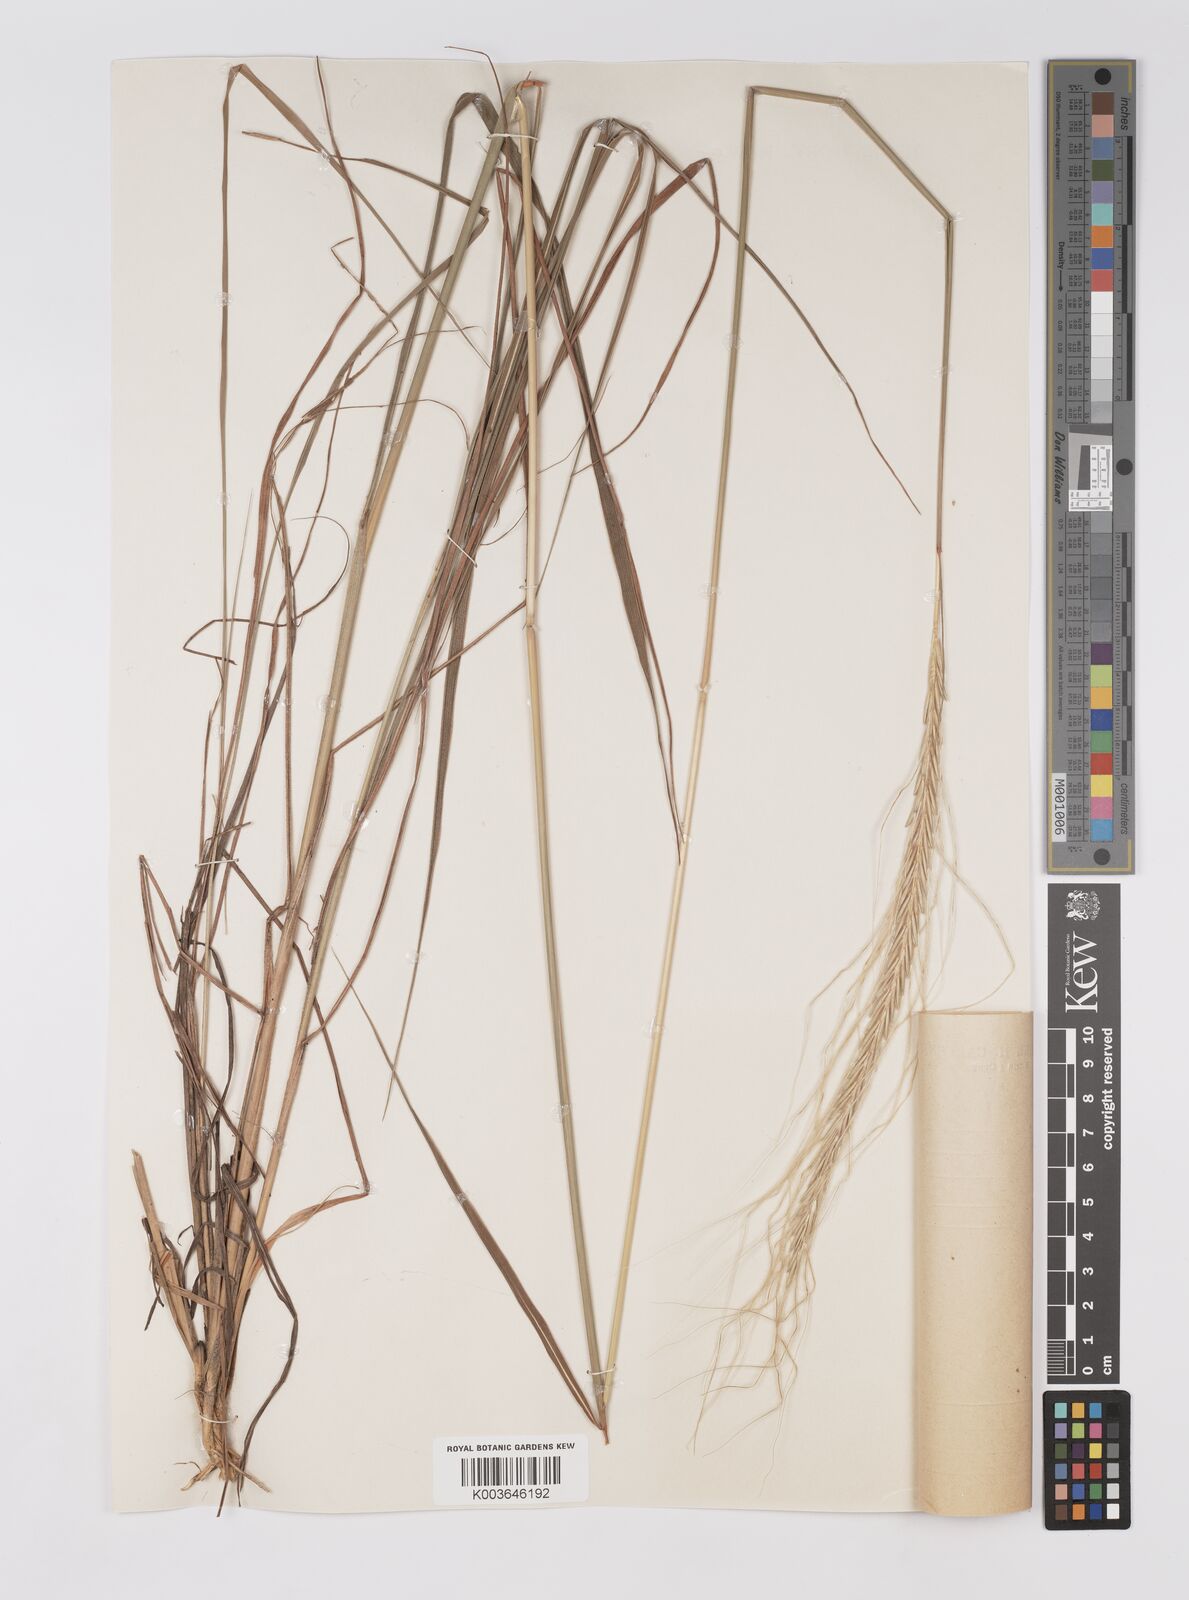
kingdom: Plantae
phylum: Tracheophyta
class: Liliopsida
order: Poales
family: Poaceae
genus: Trachypogon
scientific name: Trachypogon spicatus
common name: Crinkle-awn
